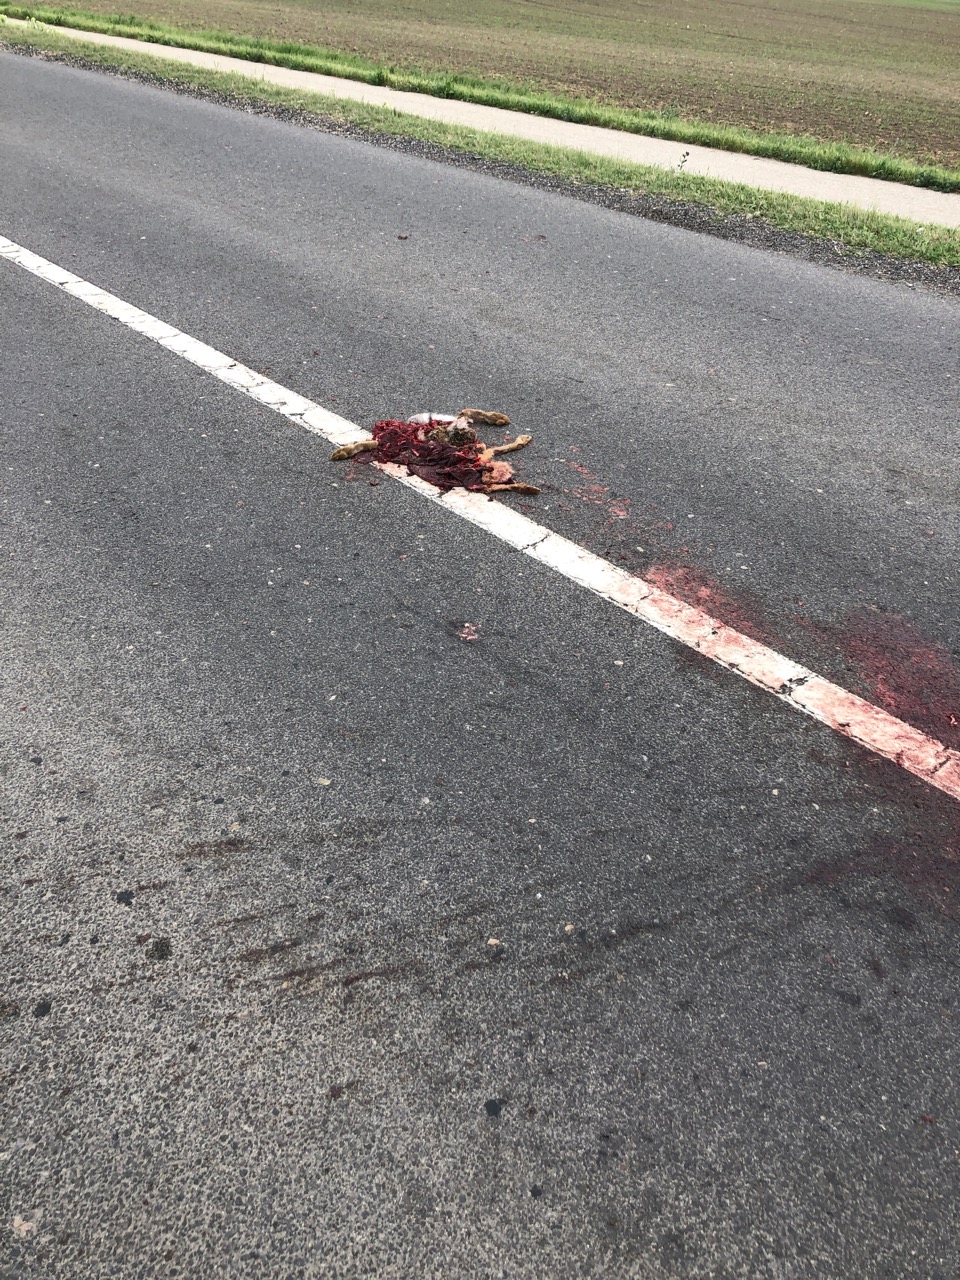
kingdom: Animalia
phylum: Chordata
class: Mammalia
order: Lagomorpha
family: Leporidae
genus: Lepus
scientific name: Lepus europaeus
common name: European hare
